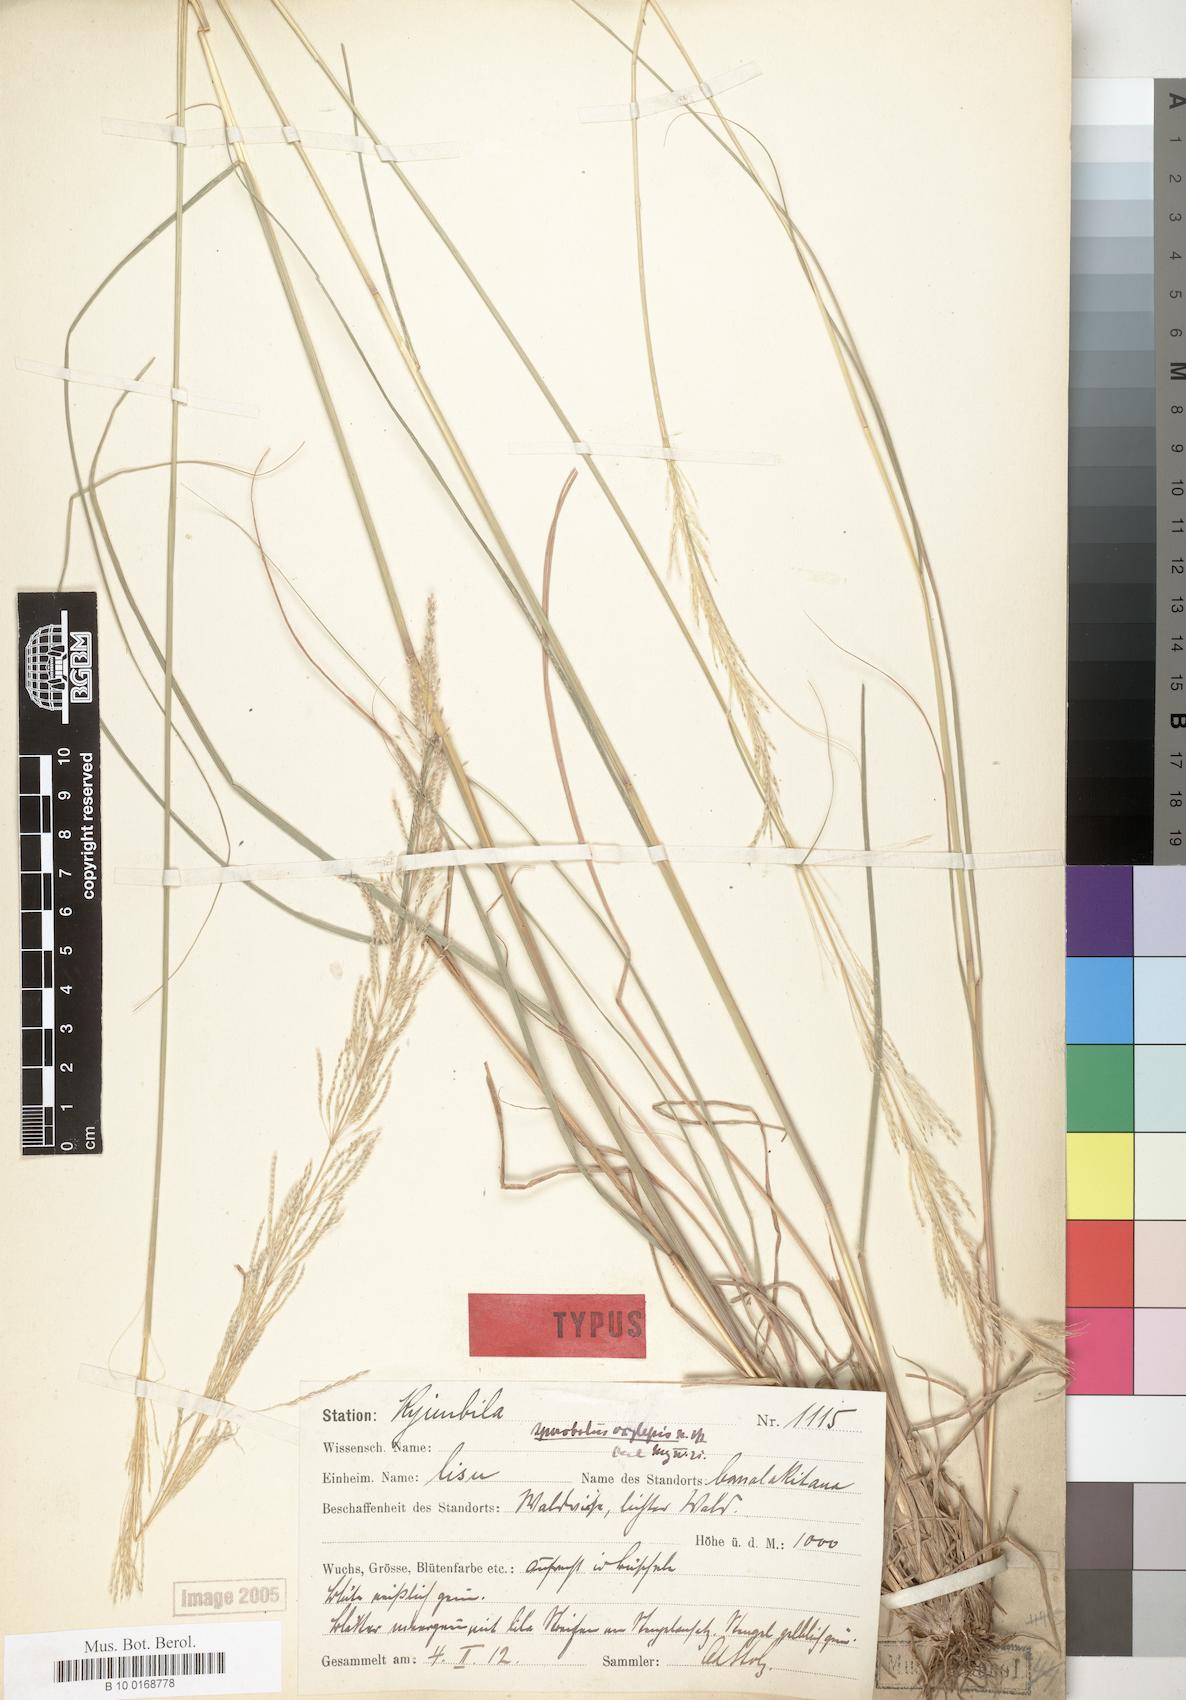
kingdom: Plantae
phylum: Tracheophyta
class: Liliopsida
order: Poales
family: Poaceae
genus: Sporobolus
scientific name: Sporobolus sanguineus
